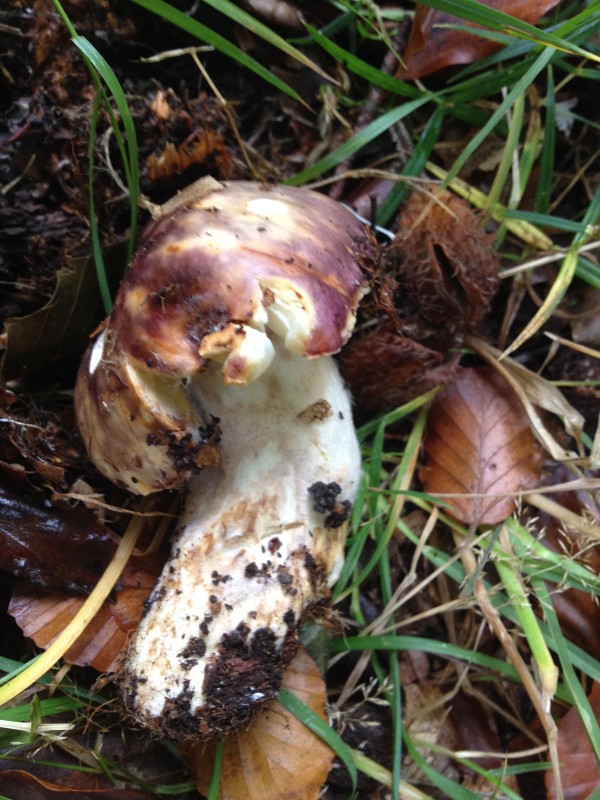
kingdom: Fungi
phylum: Basidiomycota
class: Agaricomycetes
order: Russulales
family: Russulaceae
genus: Russula
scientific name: Russula atropurpurea
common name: purpurbroget skørhat
